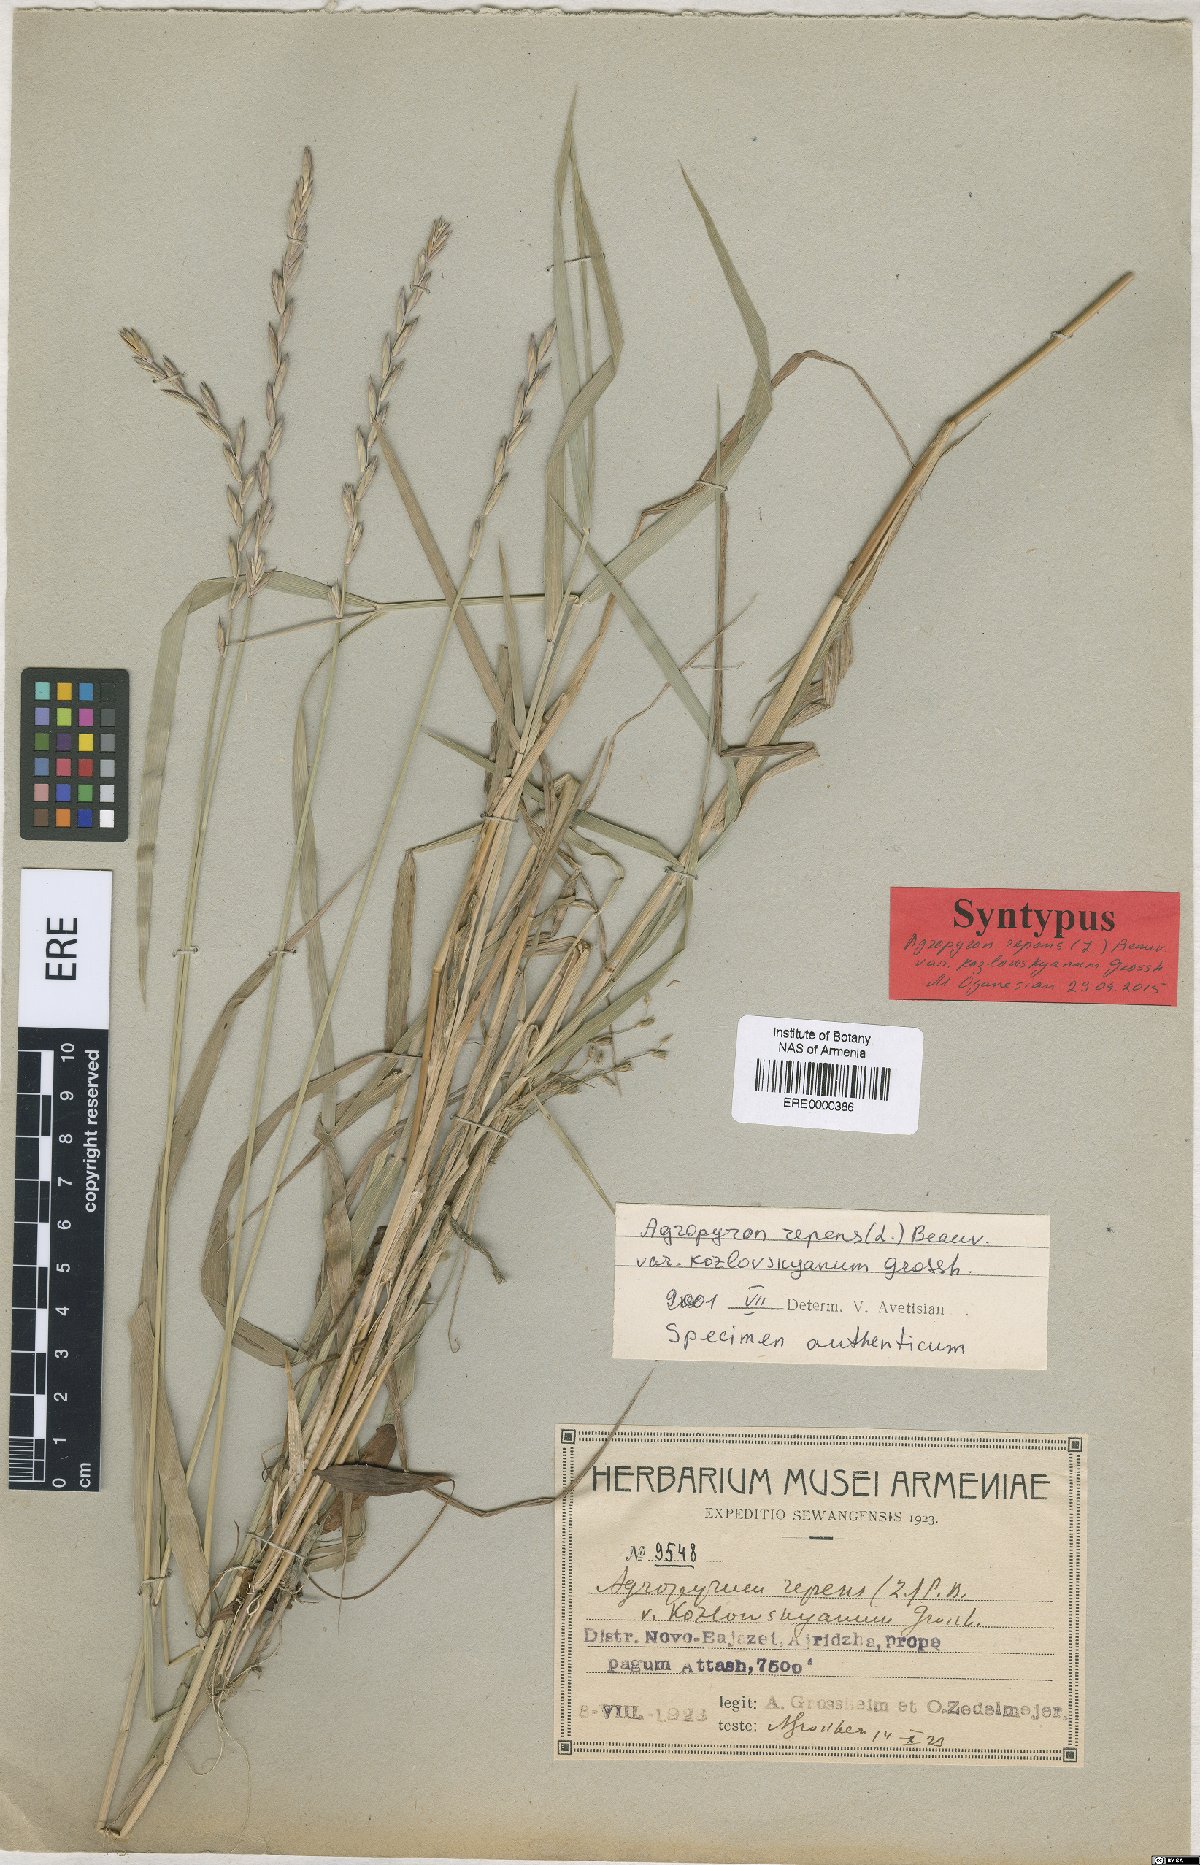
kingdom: Plantae
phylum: Tracheophyta
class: Liliopsida
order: Poales
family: Poaceae
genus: Elymus
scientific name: Elymus repens
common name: Quackgrass
